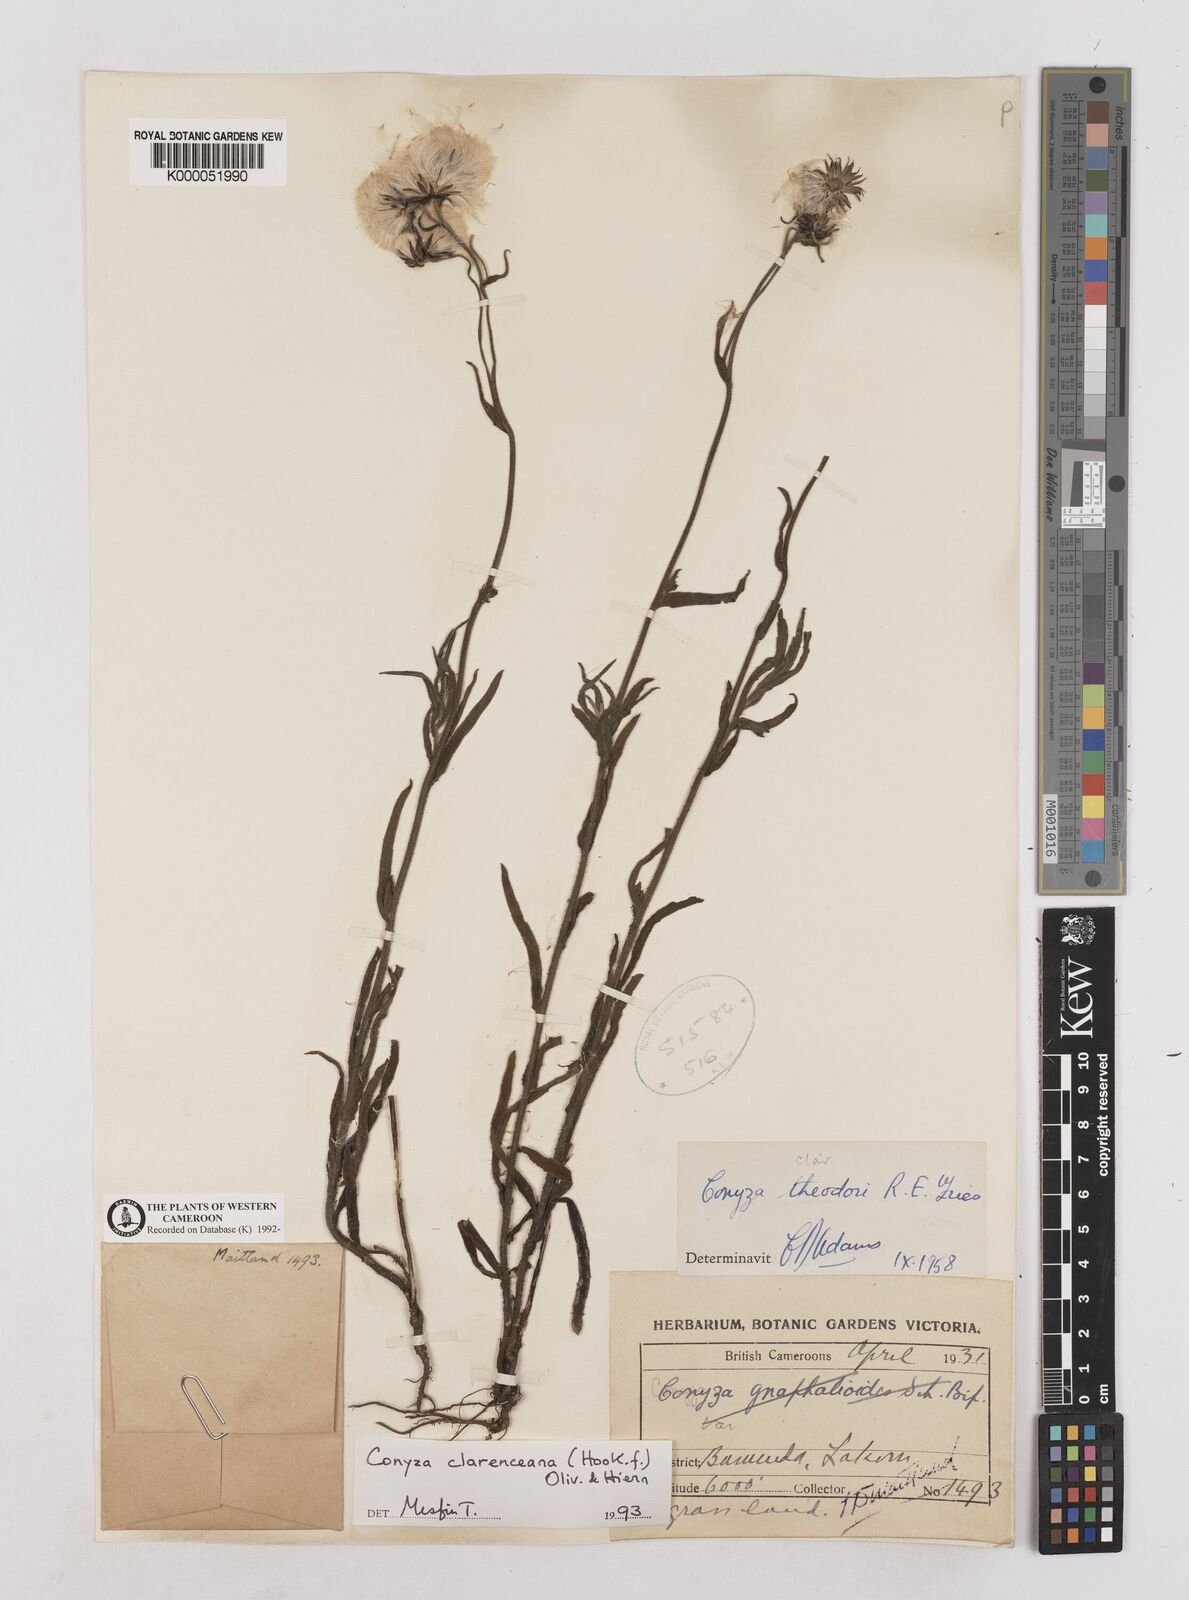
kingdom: Plantae
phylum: Tracheophyta
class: Magnoliopsida
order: Asterales
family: Asteraceae
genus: Conyza
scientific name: Conyza baumii
